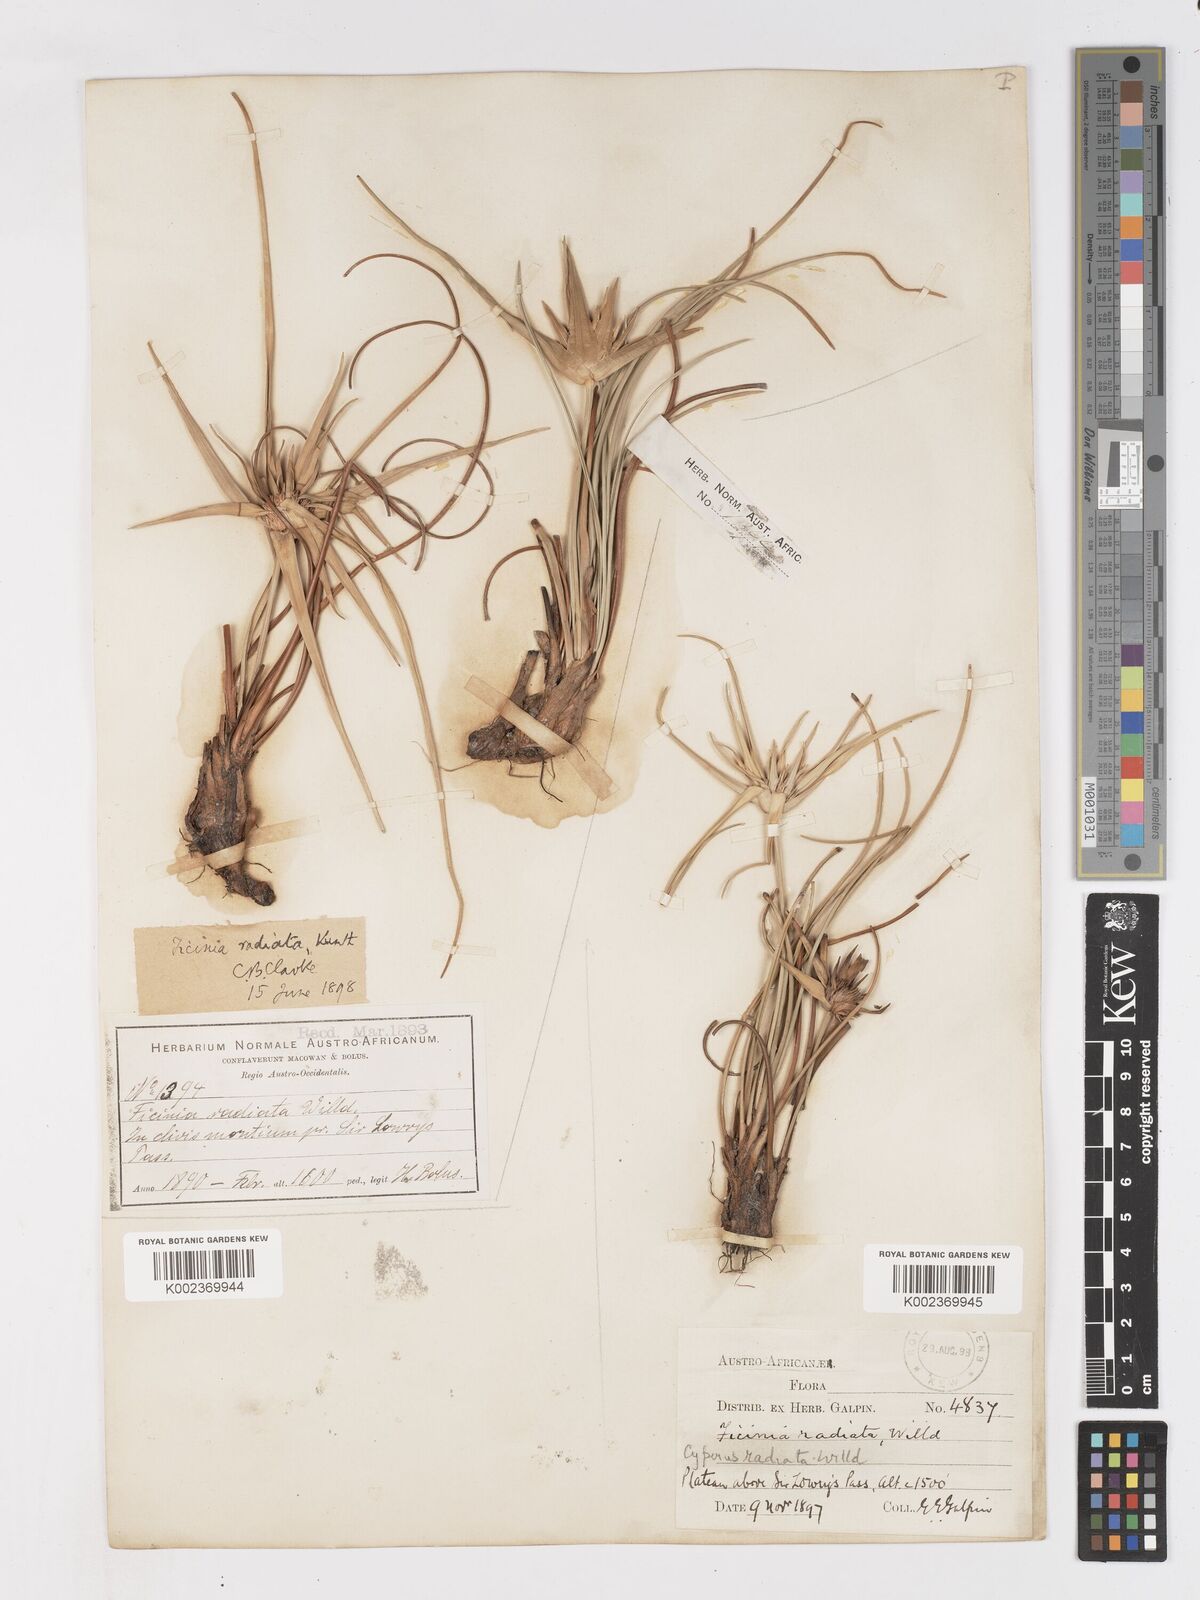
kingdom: Plantae
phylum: Tracheophyta
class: Liliopsida
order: Poales
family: Cyperaceae
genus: Ficinia
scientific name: Ficinia radiata
